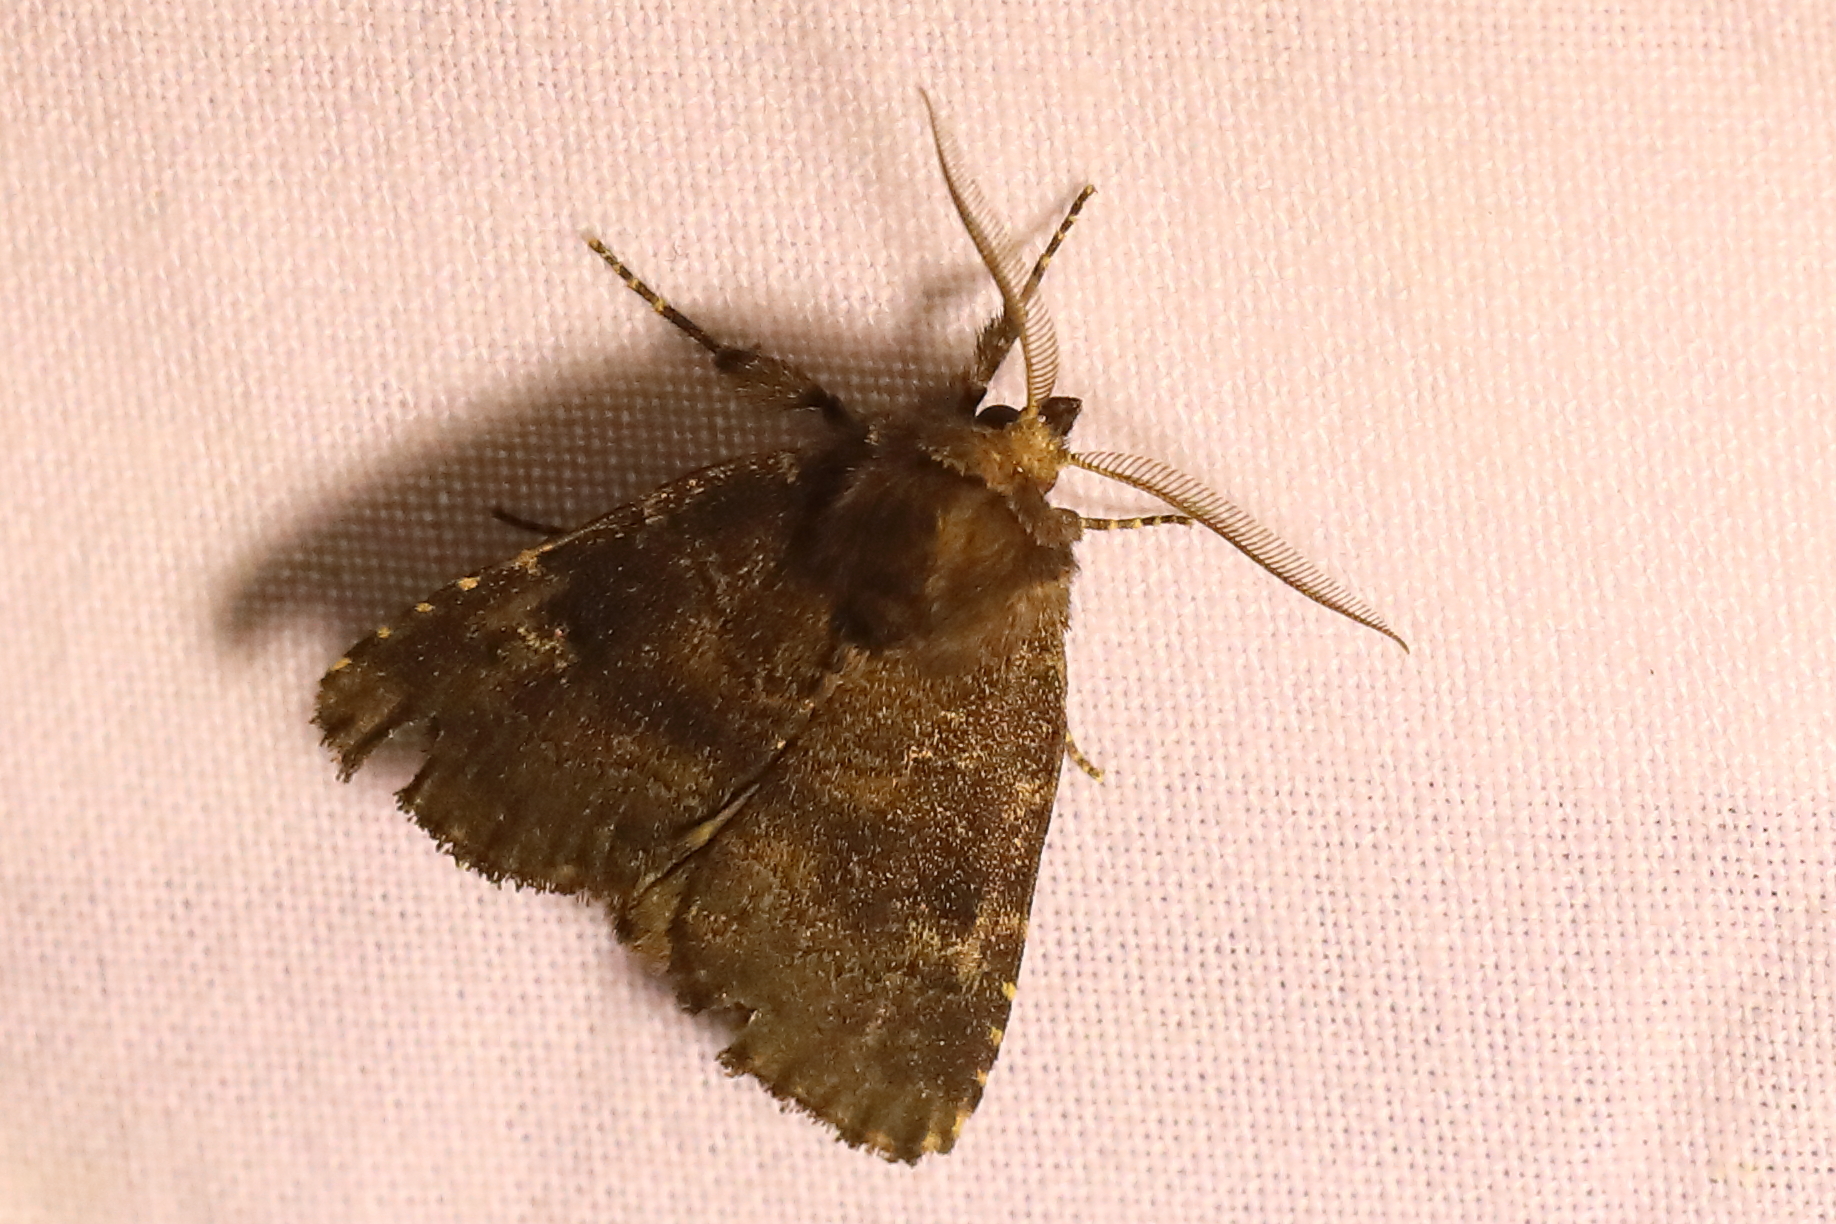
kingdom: Animalia
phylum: Arthropoda
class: Insecta
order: Lepidoptera
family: Noctuidae
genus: Charanyca
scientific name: Charanyca ferruginea
